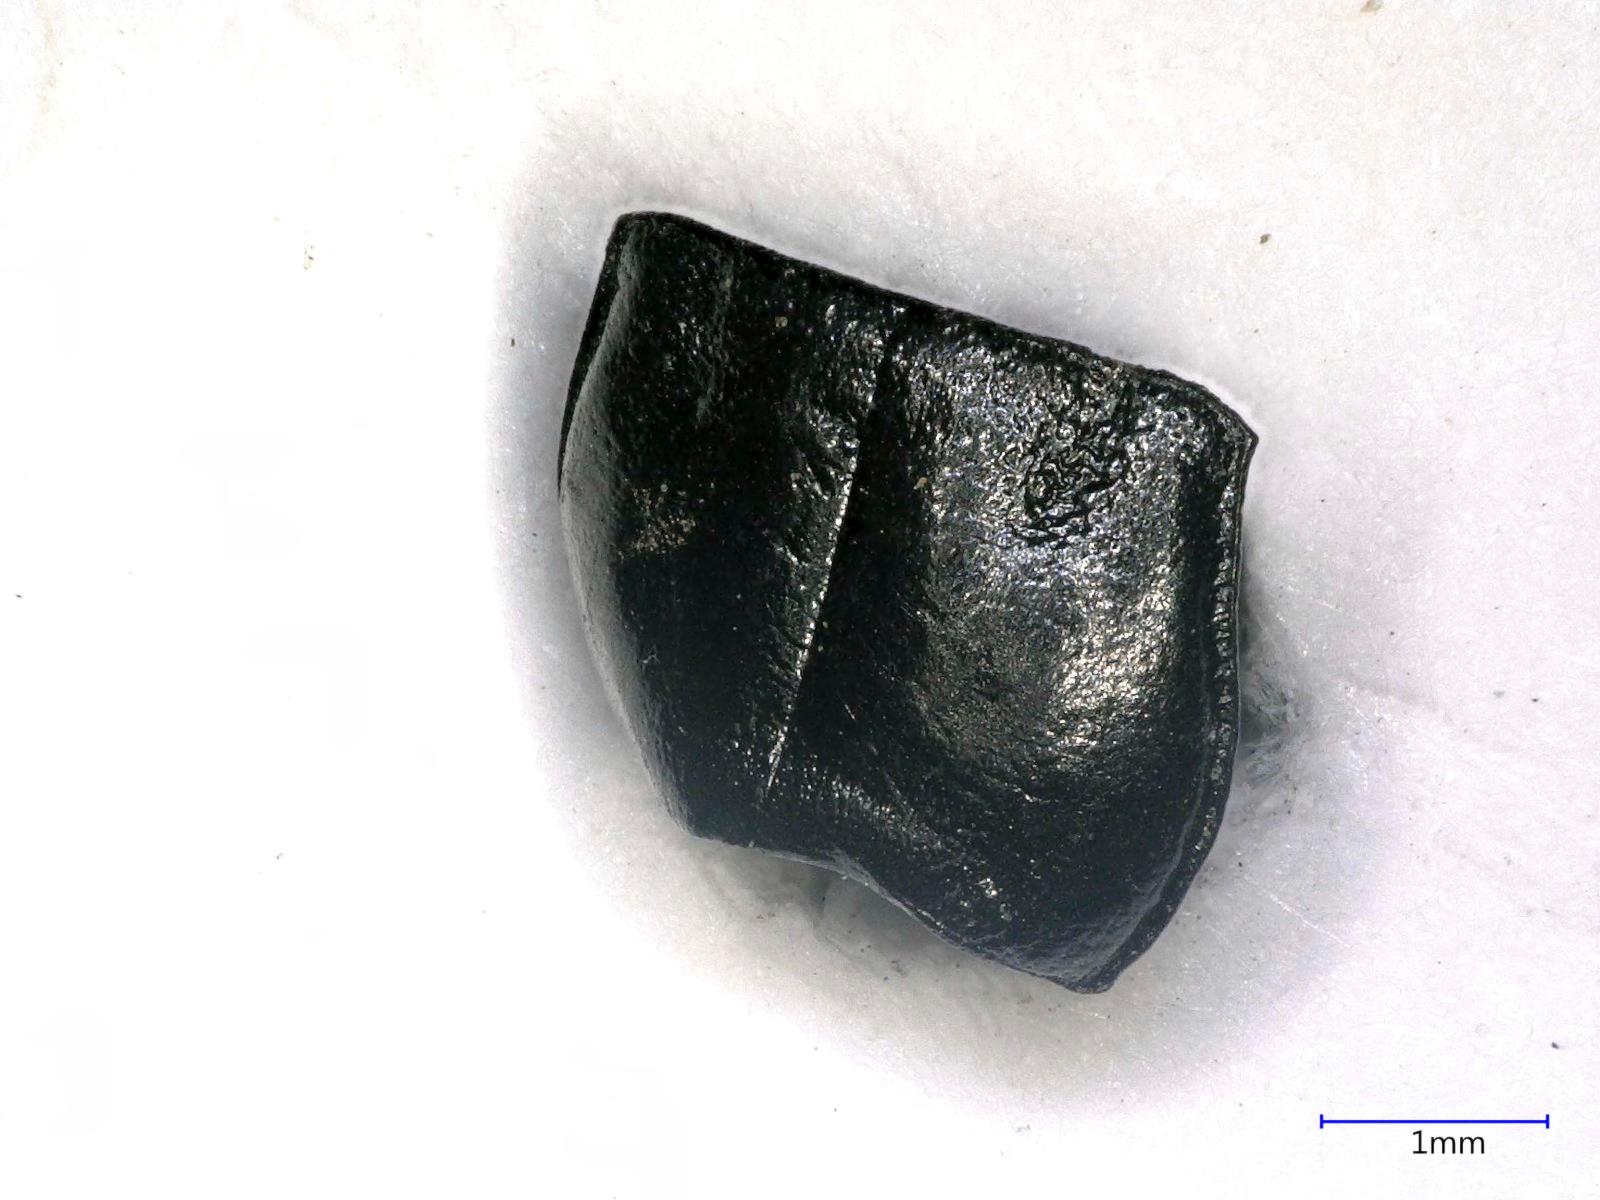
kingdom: Animalia
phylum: Arthropoda
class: Insecta
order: Coleoptera
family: Carabidae
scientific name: Carabidae
